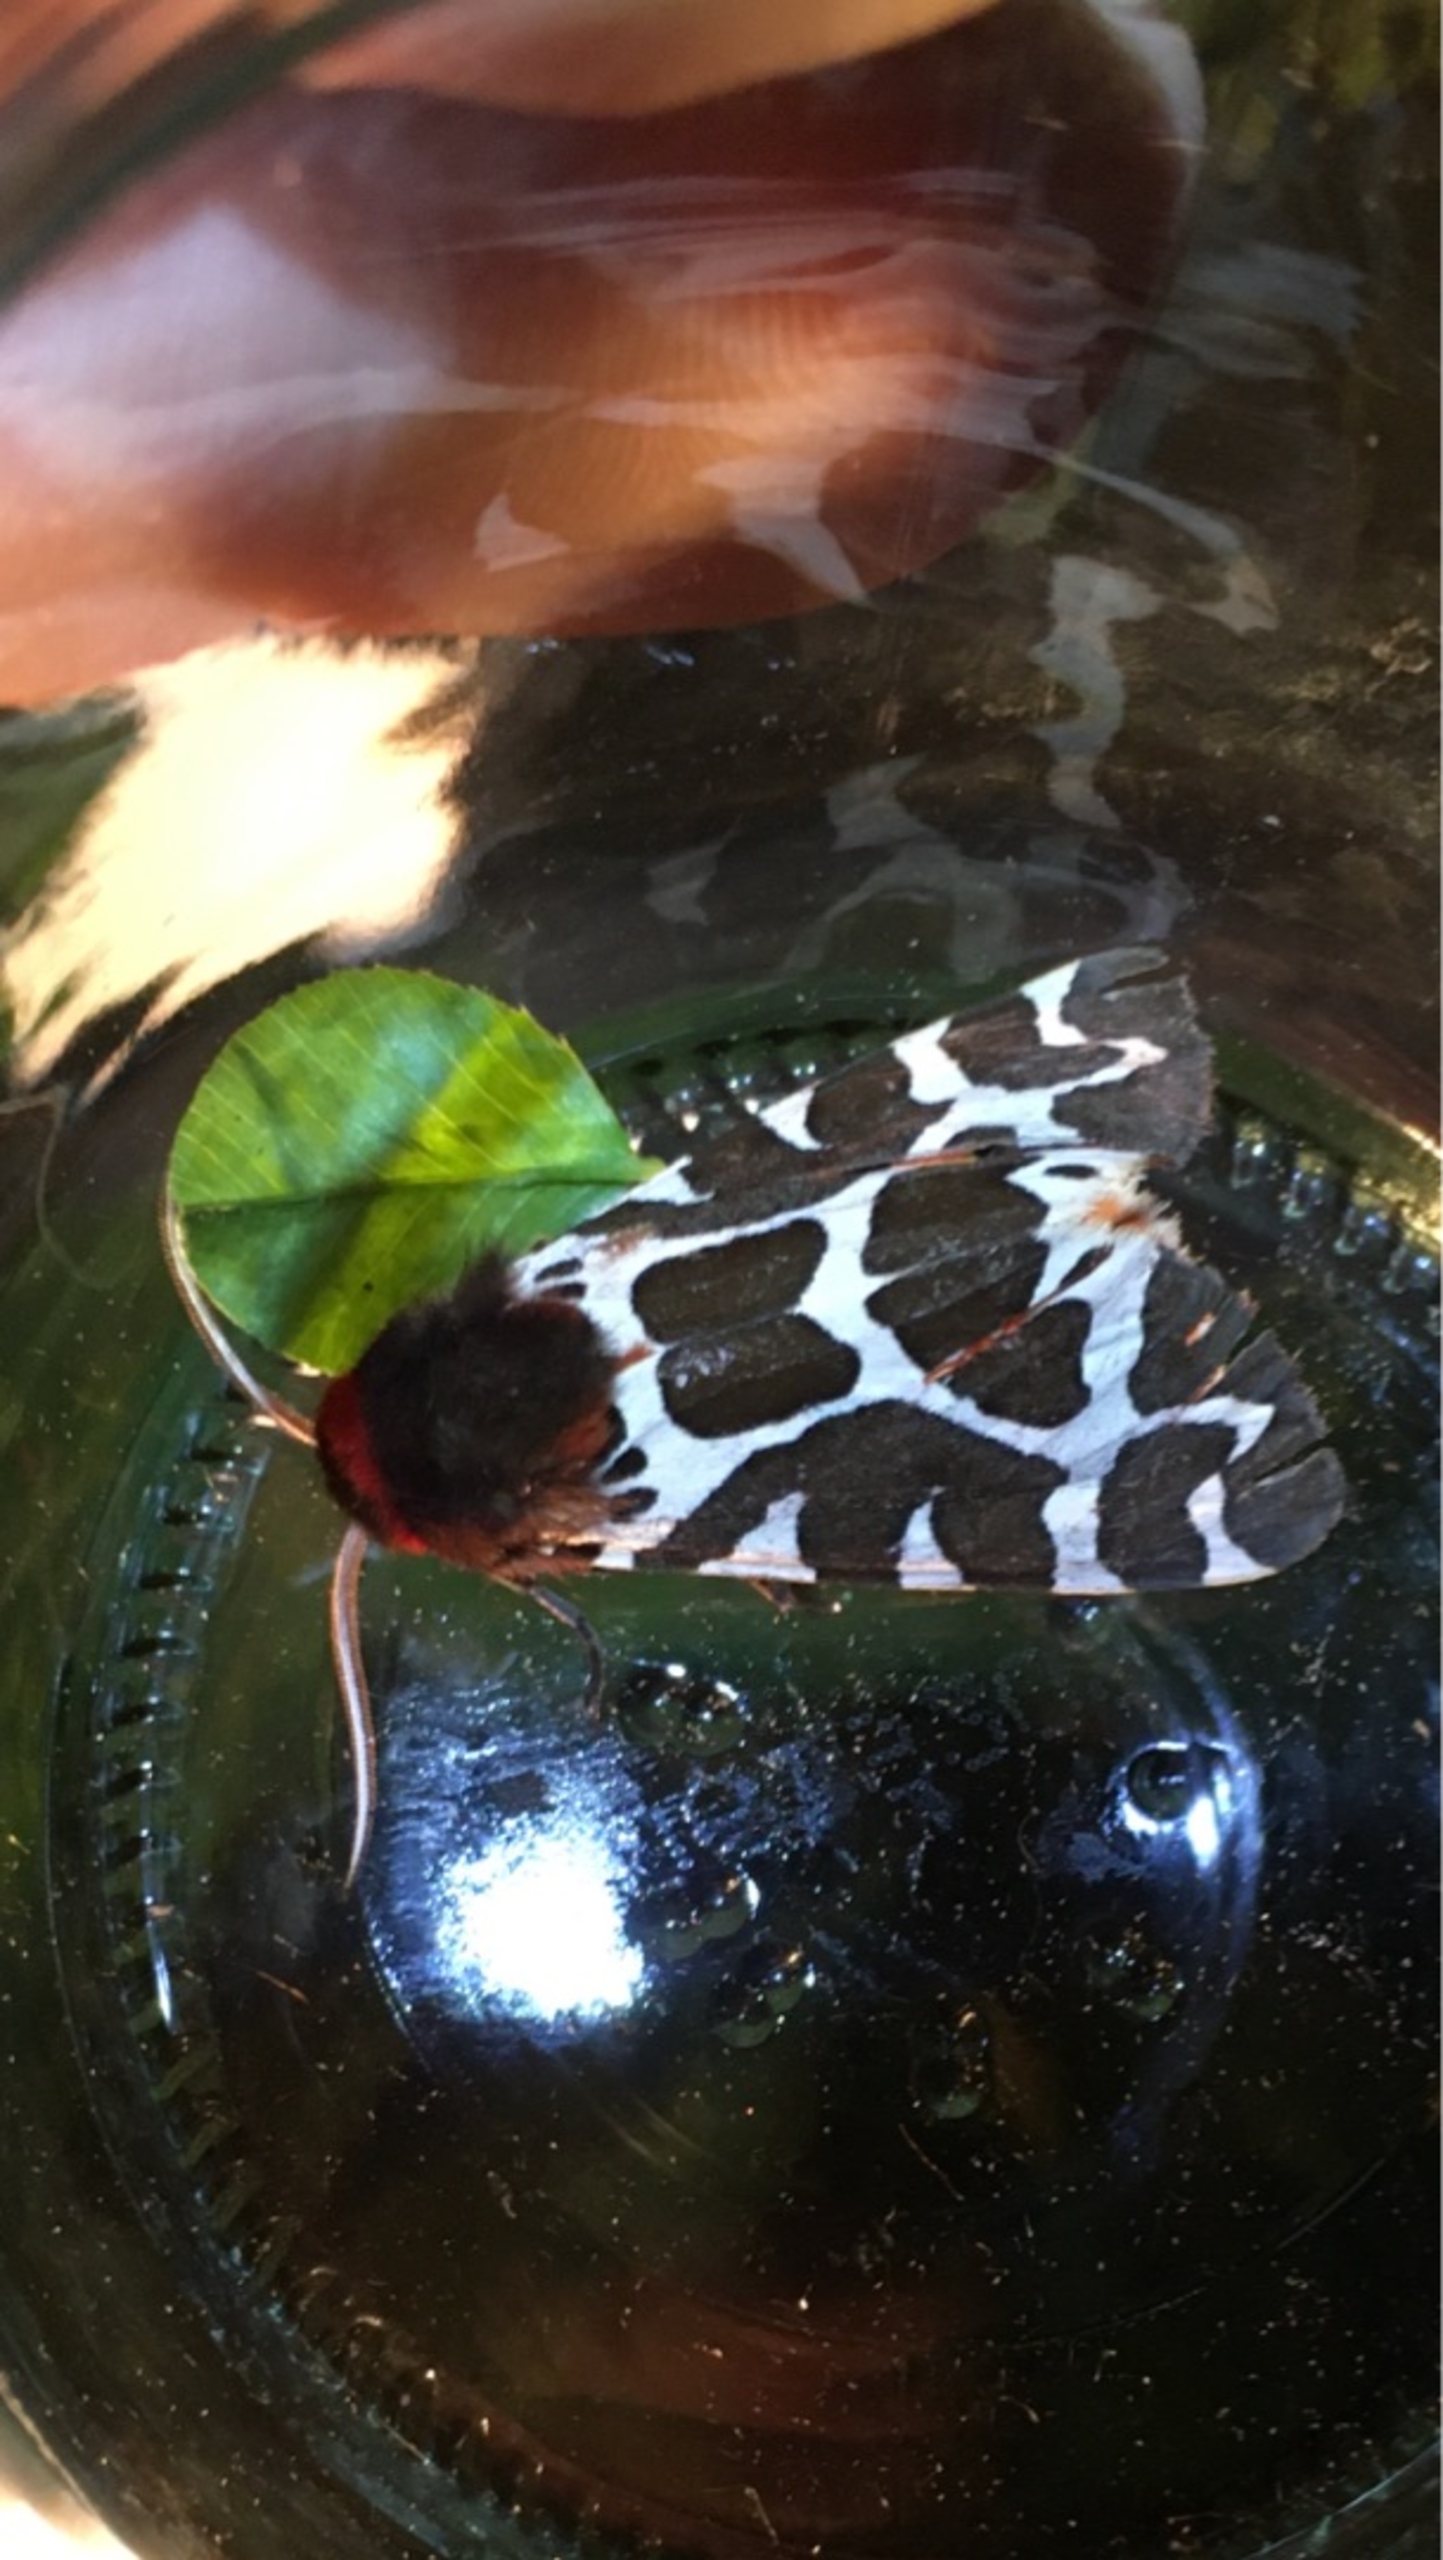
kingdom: Animalia
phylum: Arthropoda
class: Insecta
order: Lepidoptera
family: Erebidae
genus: Arctia
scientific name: Arctia caja
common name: Brun bjørn
